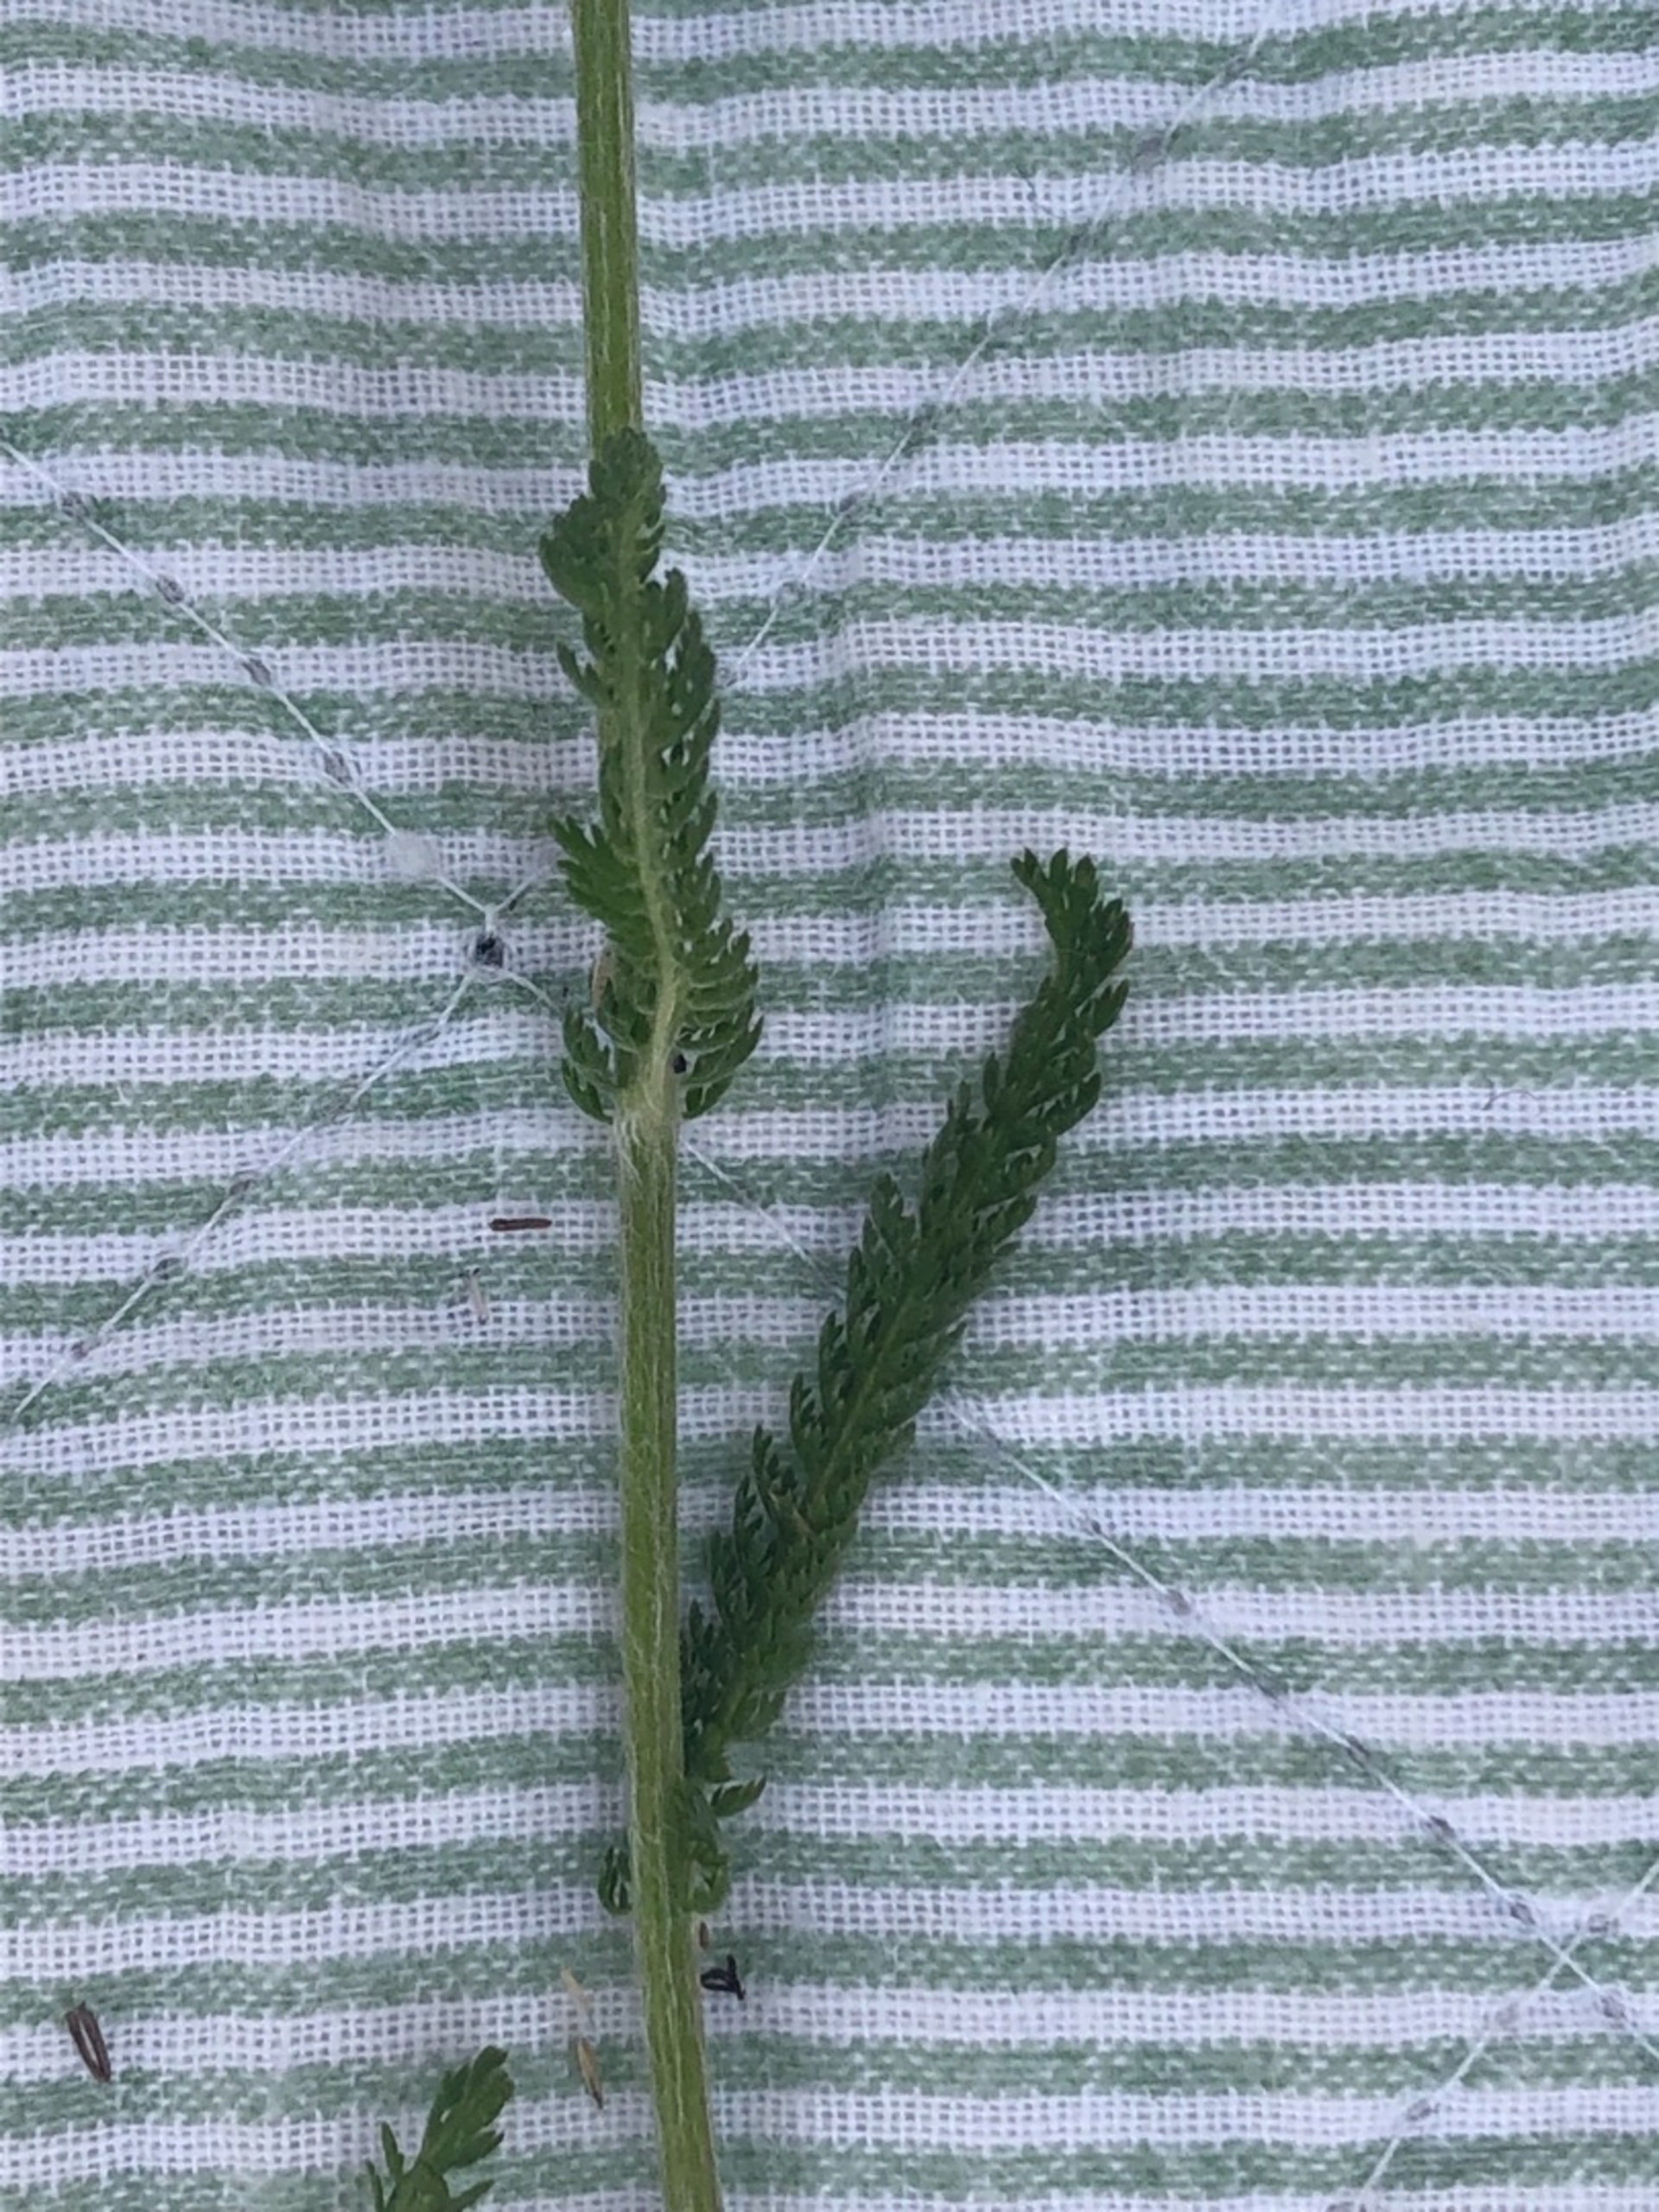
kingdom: Plantae
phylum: Tracheophyta
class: Magnoliopsida
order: Asterales
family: Asteraceae
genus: Achillea
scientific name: Achillea millefolium
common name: Almindelig røllike
